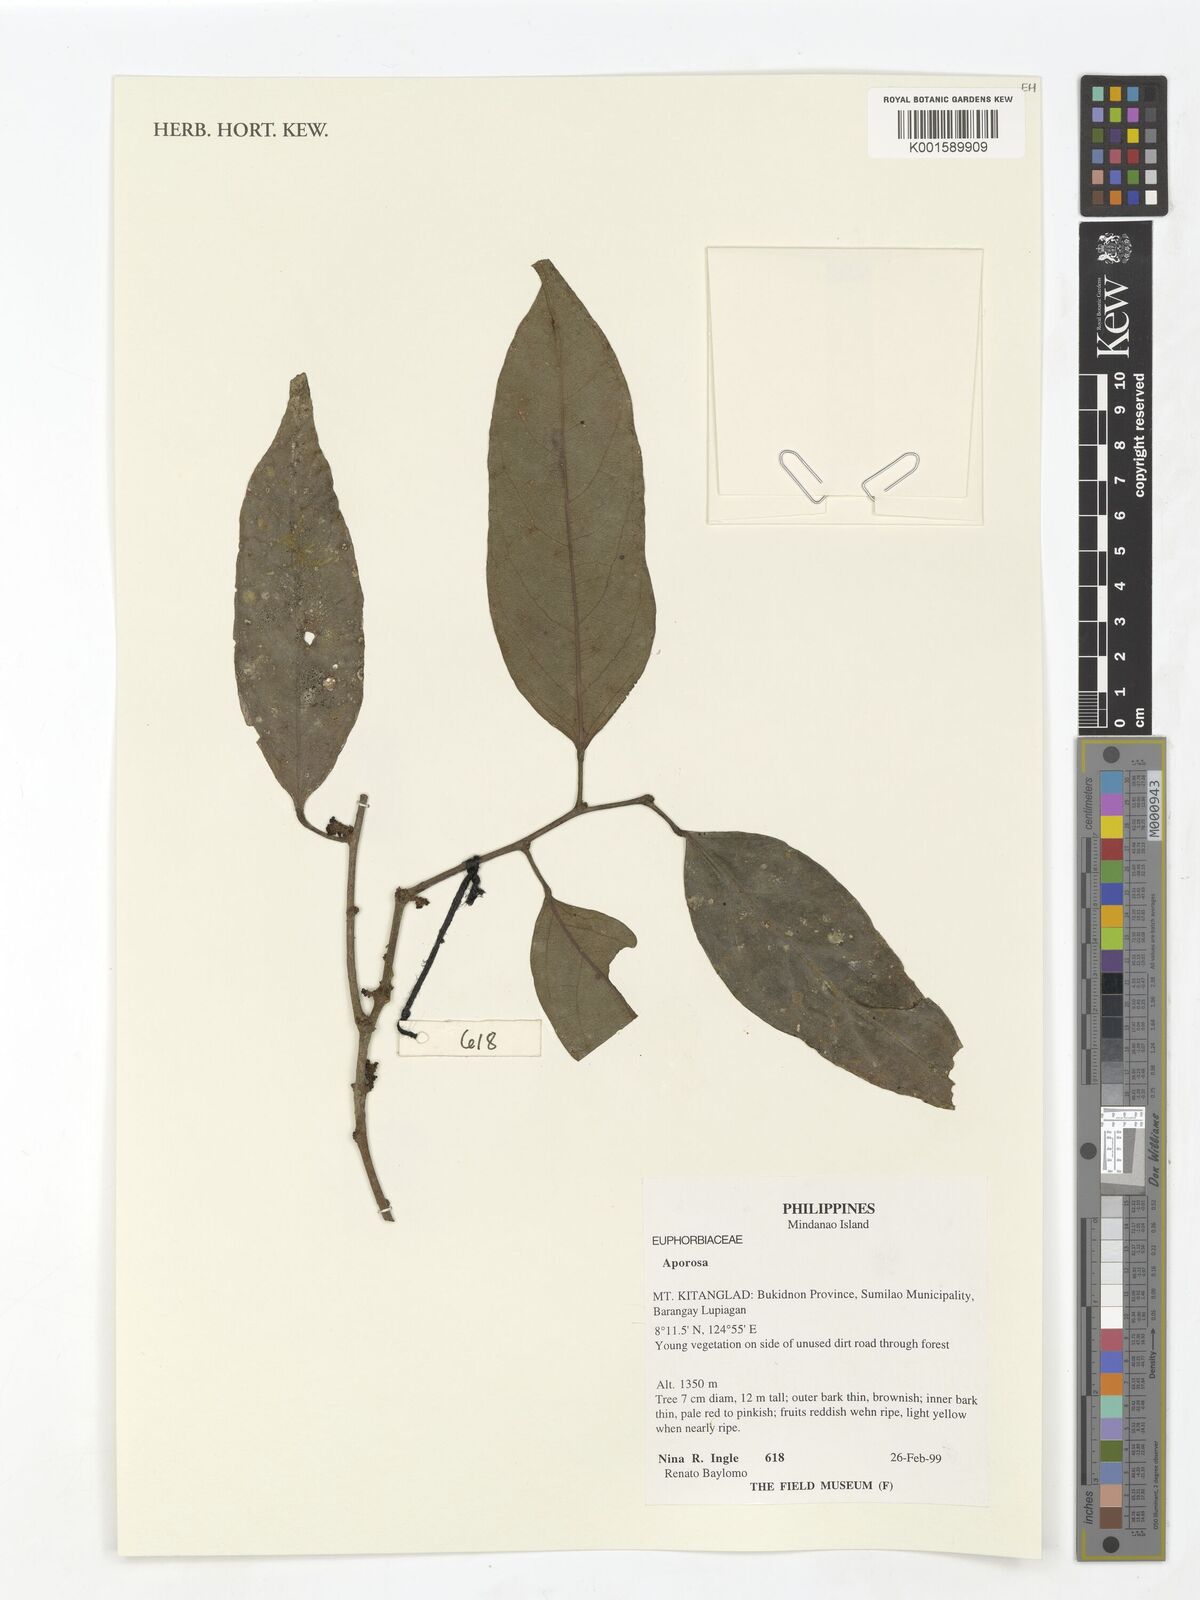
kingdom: Plantae
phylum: Tracheophyta
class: Magnoliopsida
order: Malpighiales
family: Phyllanthaceae
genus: Aporosa
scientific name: Aporosa
